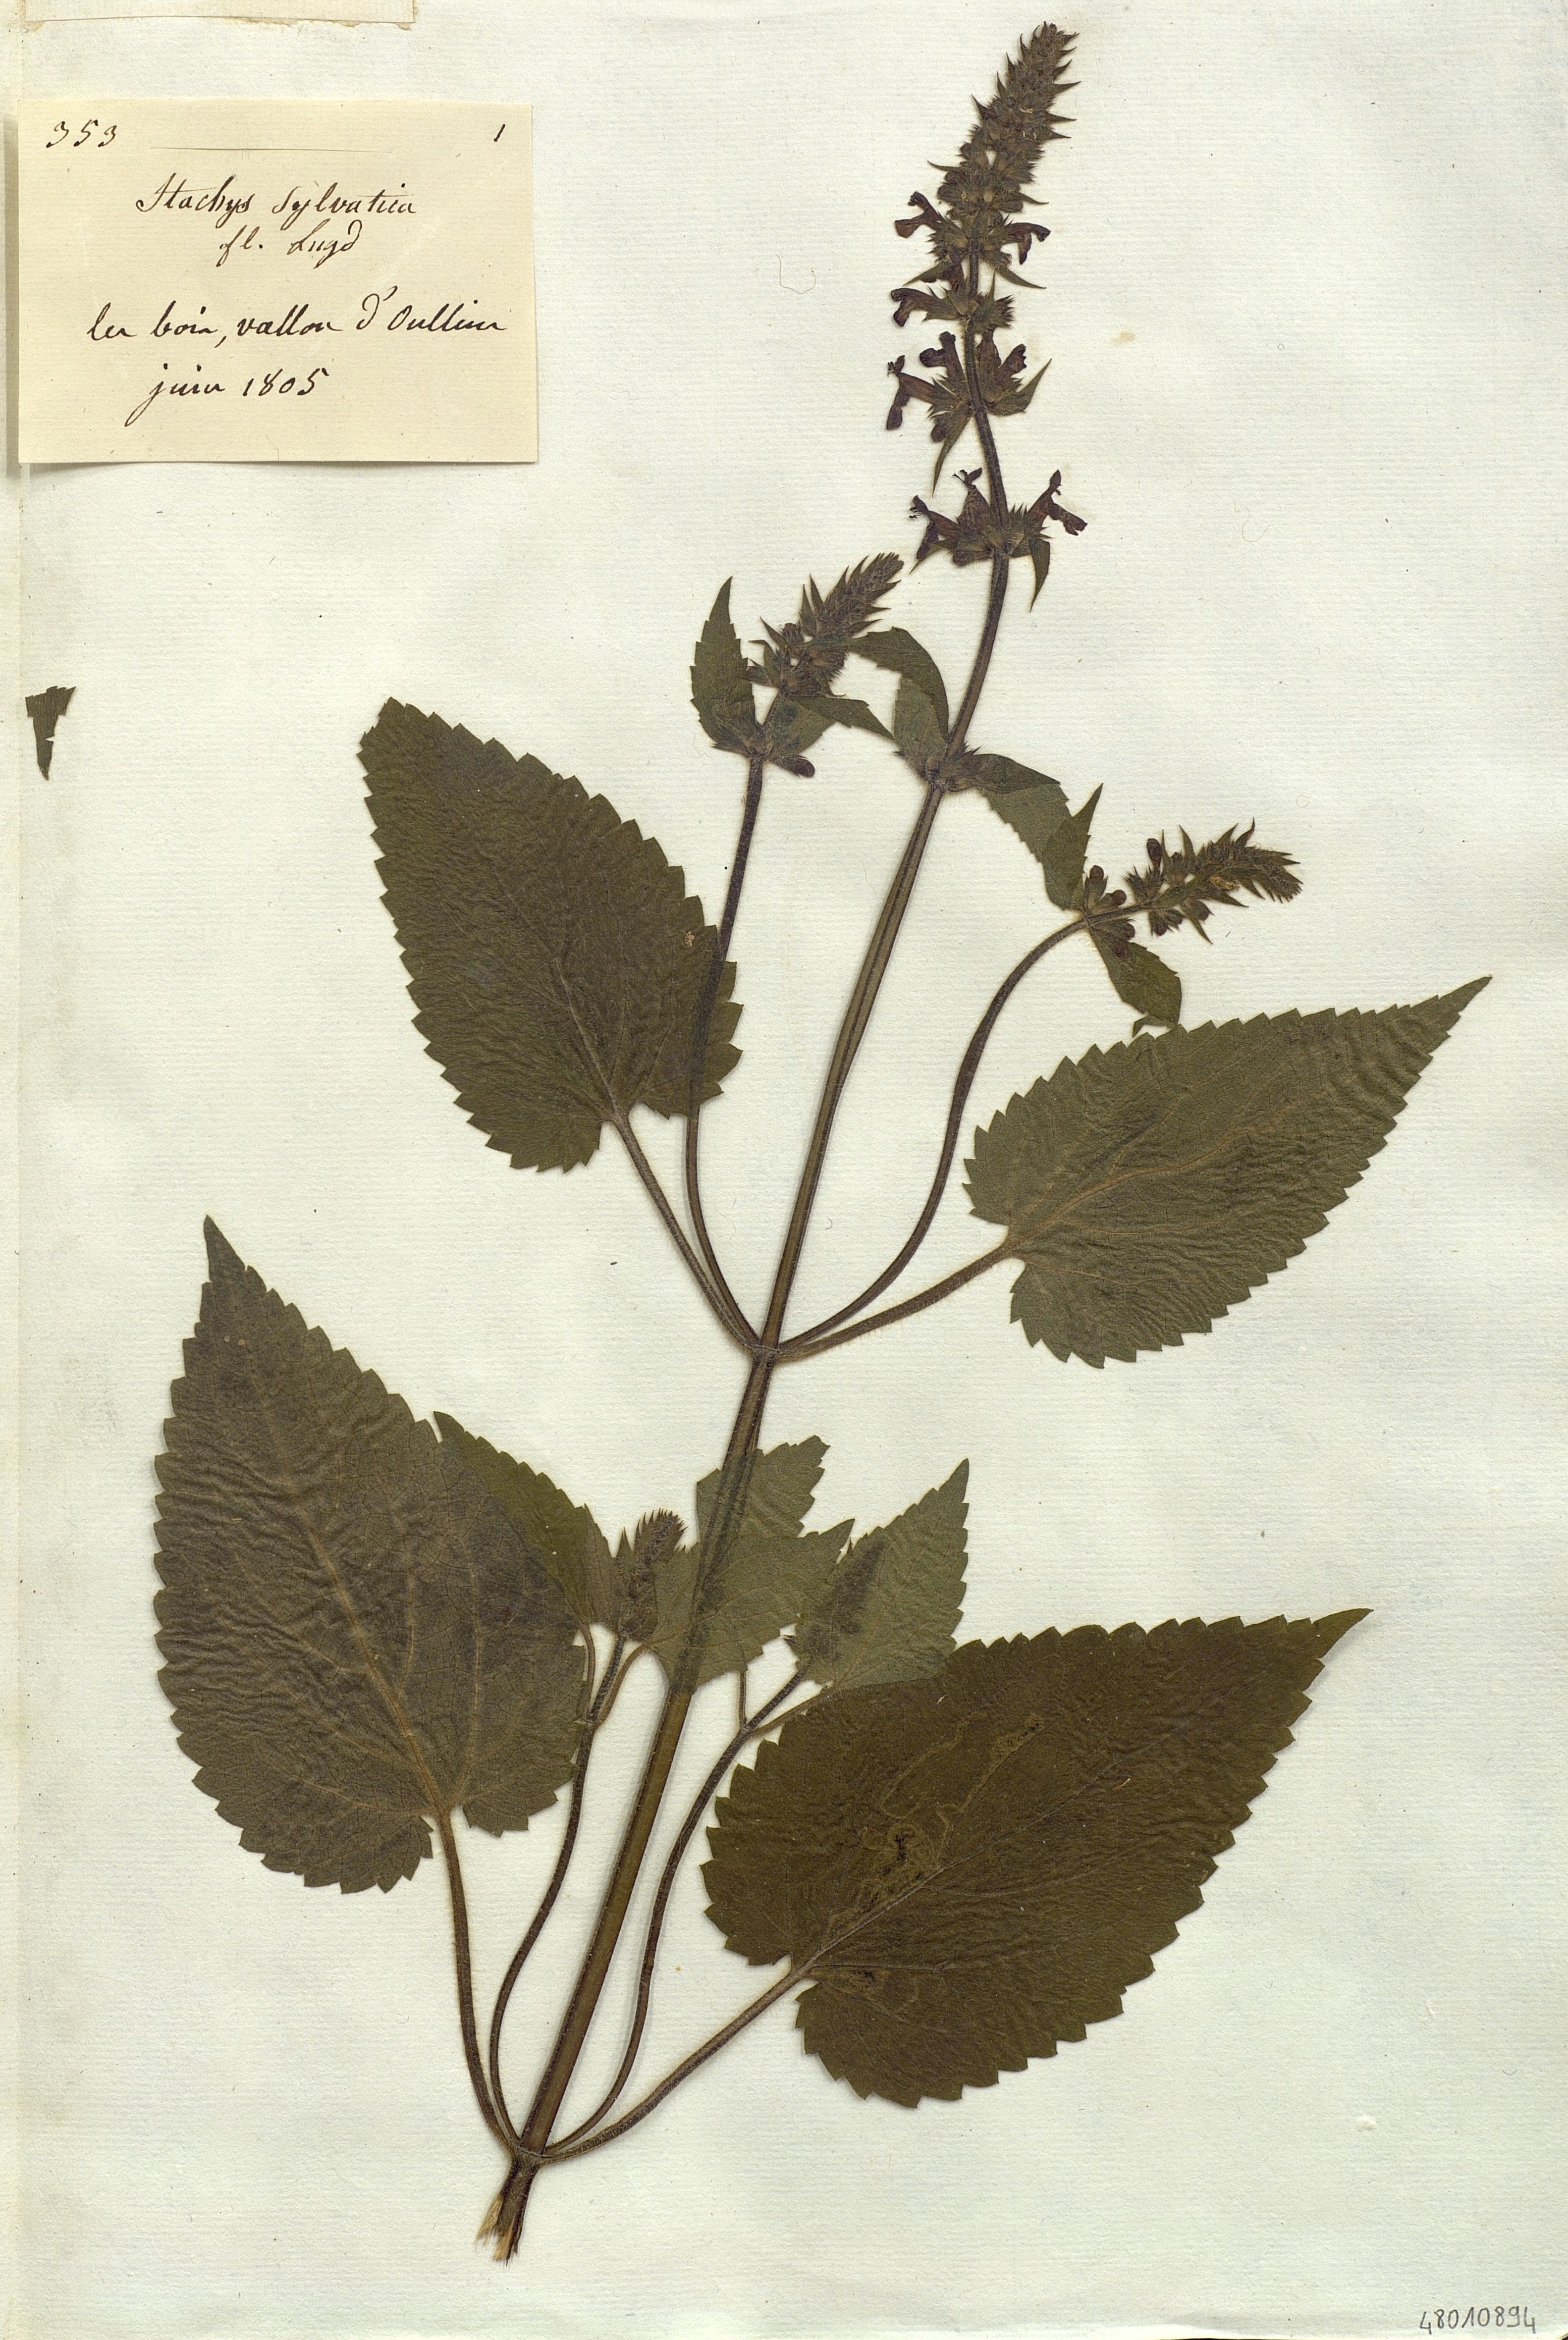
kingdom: Plantae
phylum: Tracheophyta
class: Magnoliopsida
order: Lamiales
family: Lamiaceae
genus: Stachys
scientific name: Stachys sylvatica
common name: Hedge woundwort
